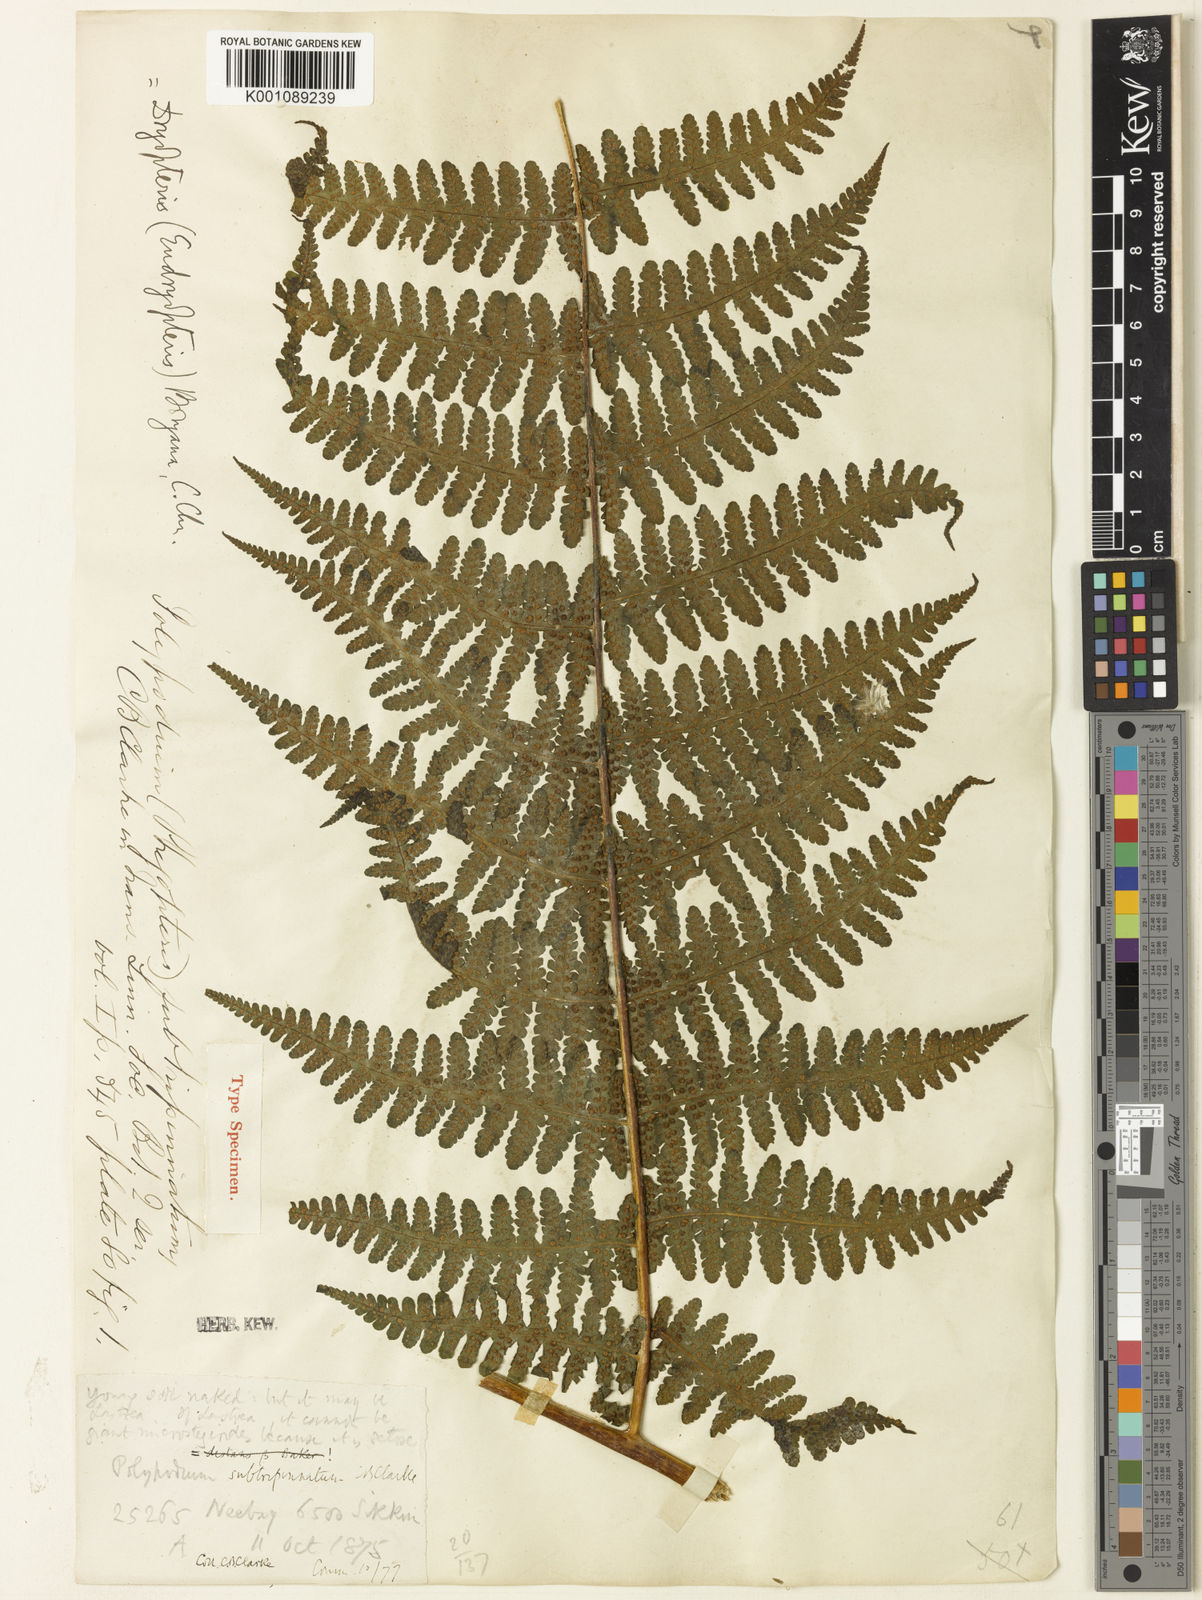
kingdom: Plantae
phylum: Tracheophyta
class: Polypodiopsida
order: Polypodiales
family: Athyriaceae
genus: Deparia
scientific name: Deparia boryana
